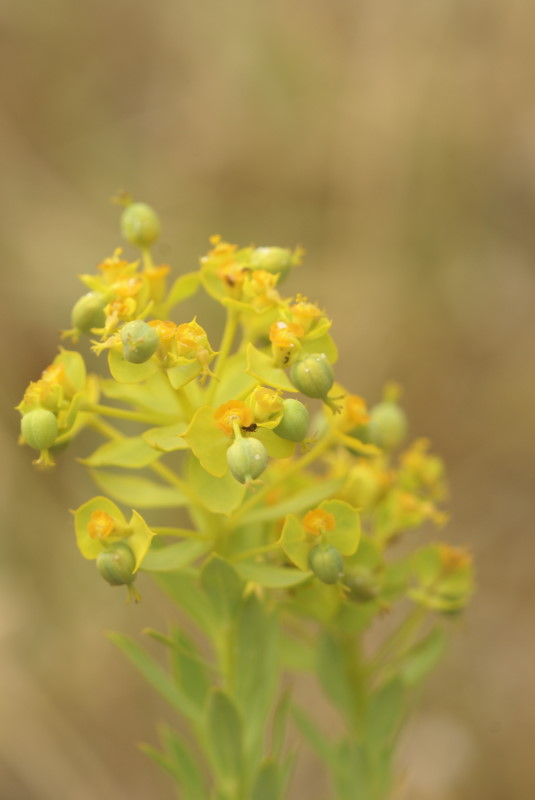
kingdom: Plantae
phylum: Tracheophyta
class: Magnoliopsida
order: Malpighiales
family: Euphorbiaceae
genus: Euphorbia
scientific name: Euphorbia stepposa
